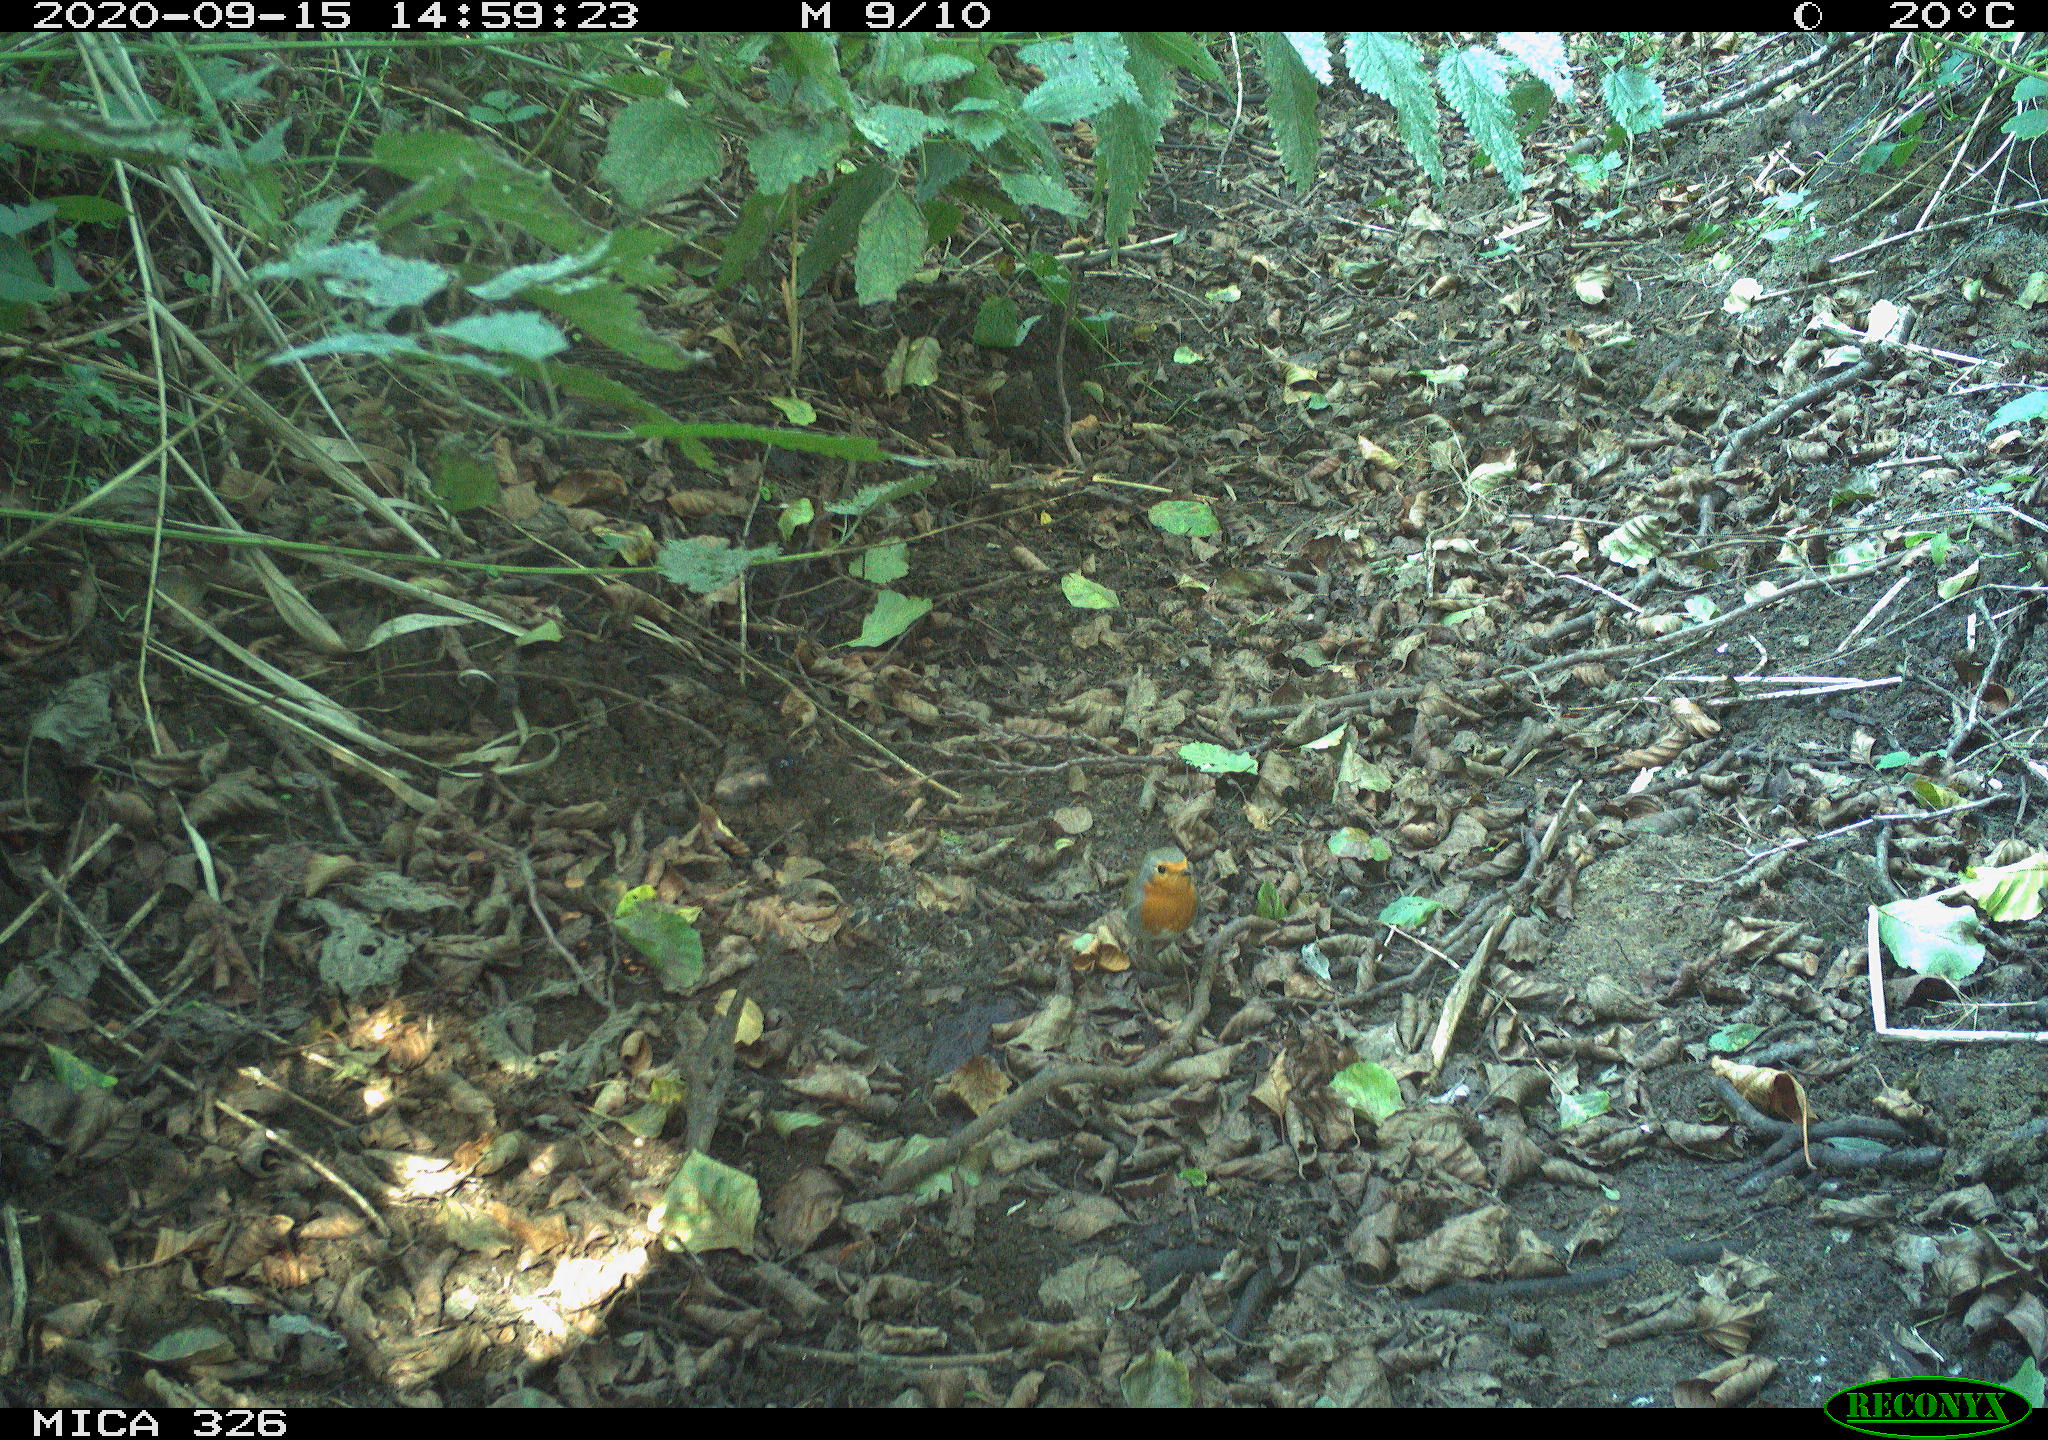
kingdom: Animalia
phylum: Chordata
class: Aves
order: Passeriformes
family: Muscicapidae
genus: Erithacus
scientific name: Erithacus rubecula
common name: European robin
